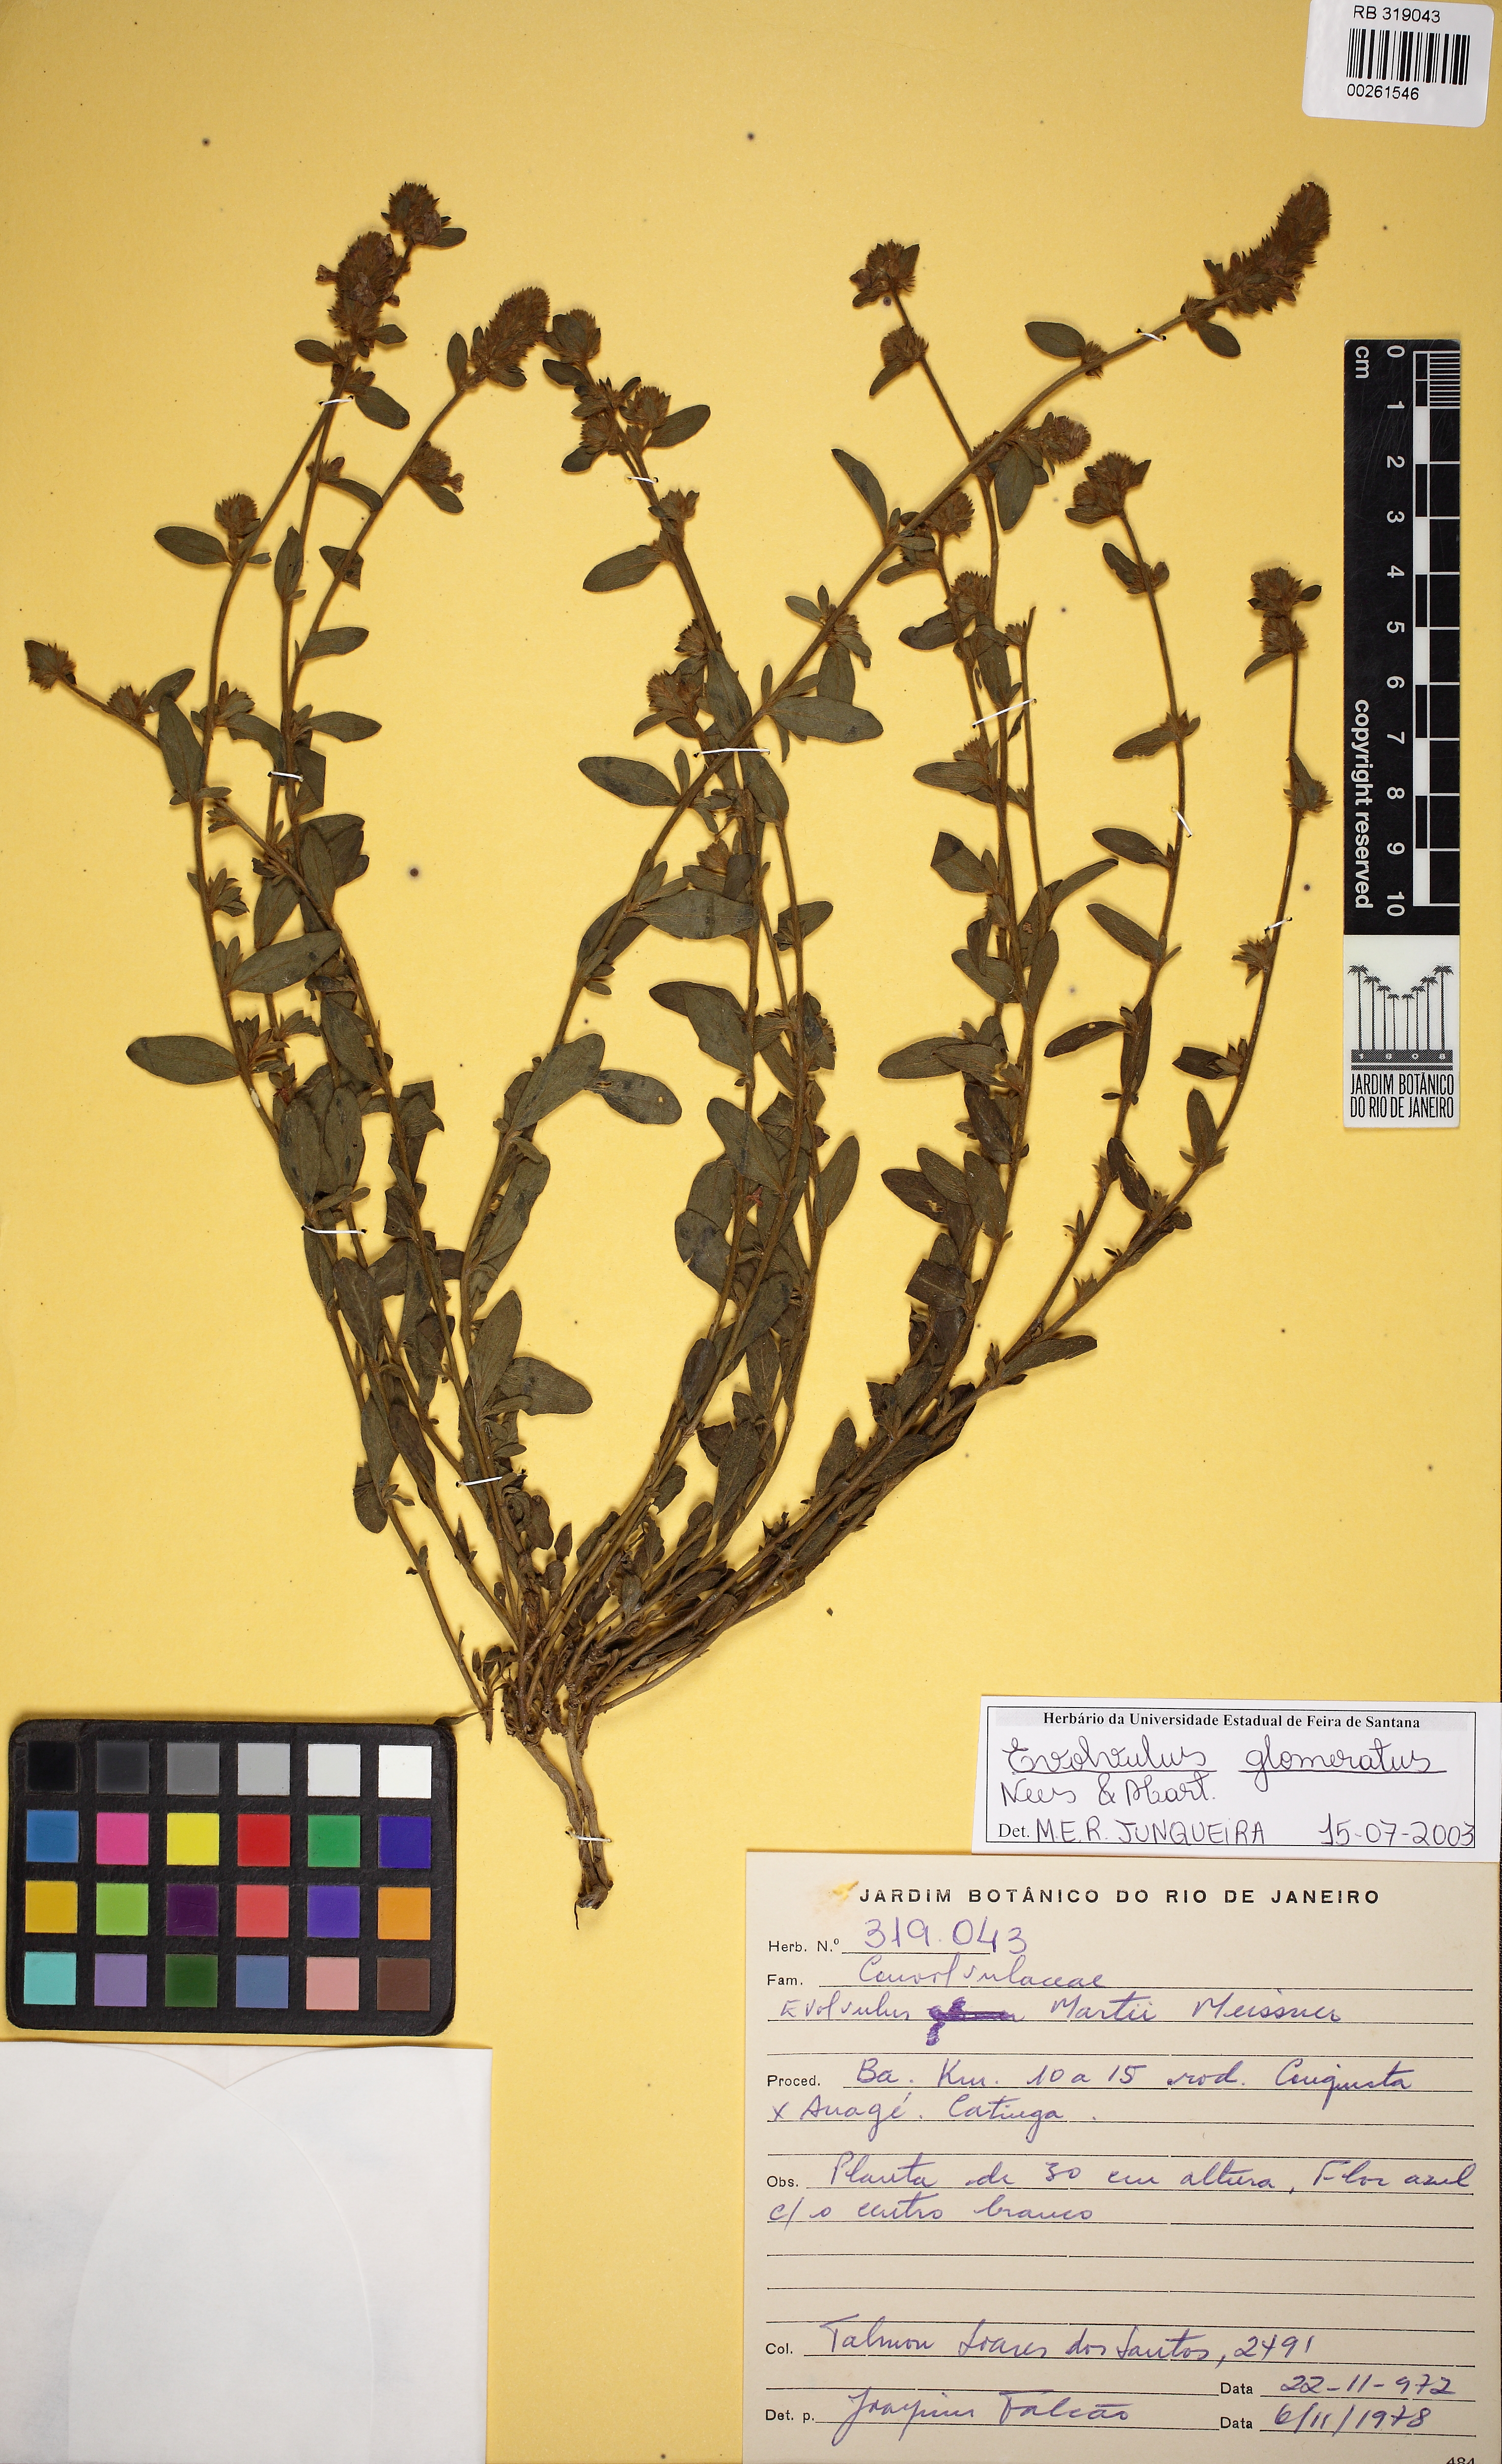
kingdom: Plantae
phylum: Tracheophyta
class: Magnoliopsida
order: Solanales
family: Convolvulaceae
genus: Evolvulus
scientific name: Evolvulus glomeratus
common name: Brazilian dwarf morning-glory
